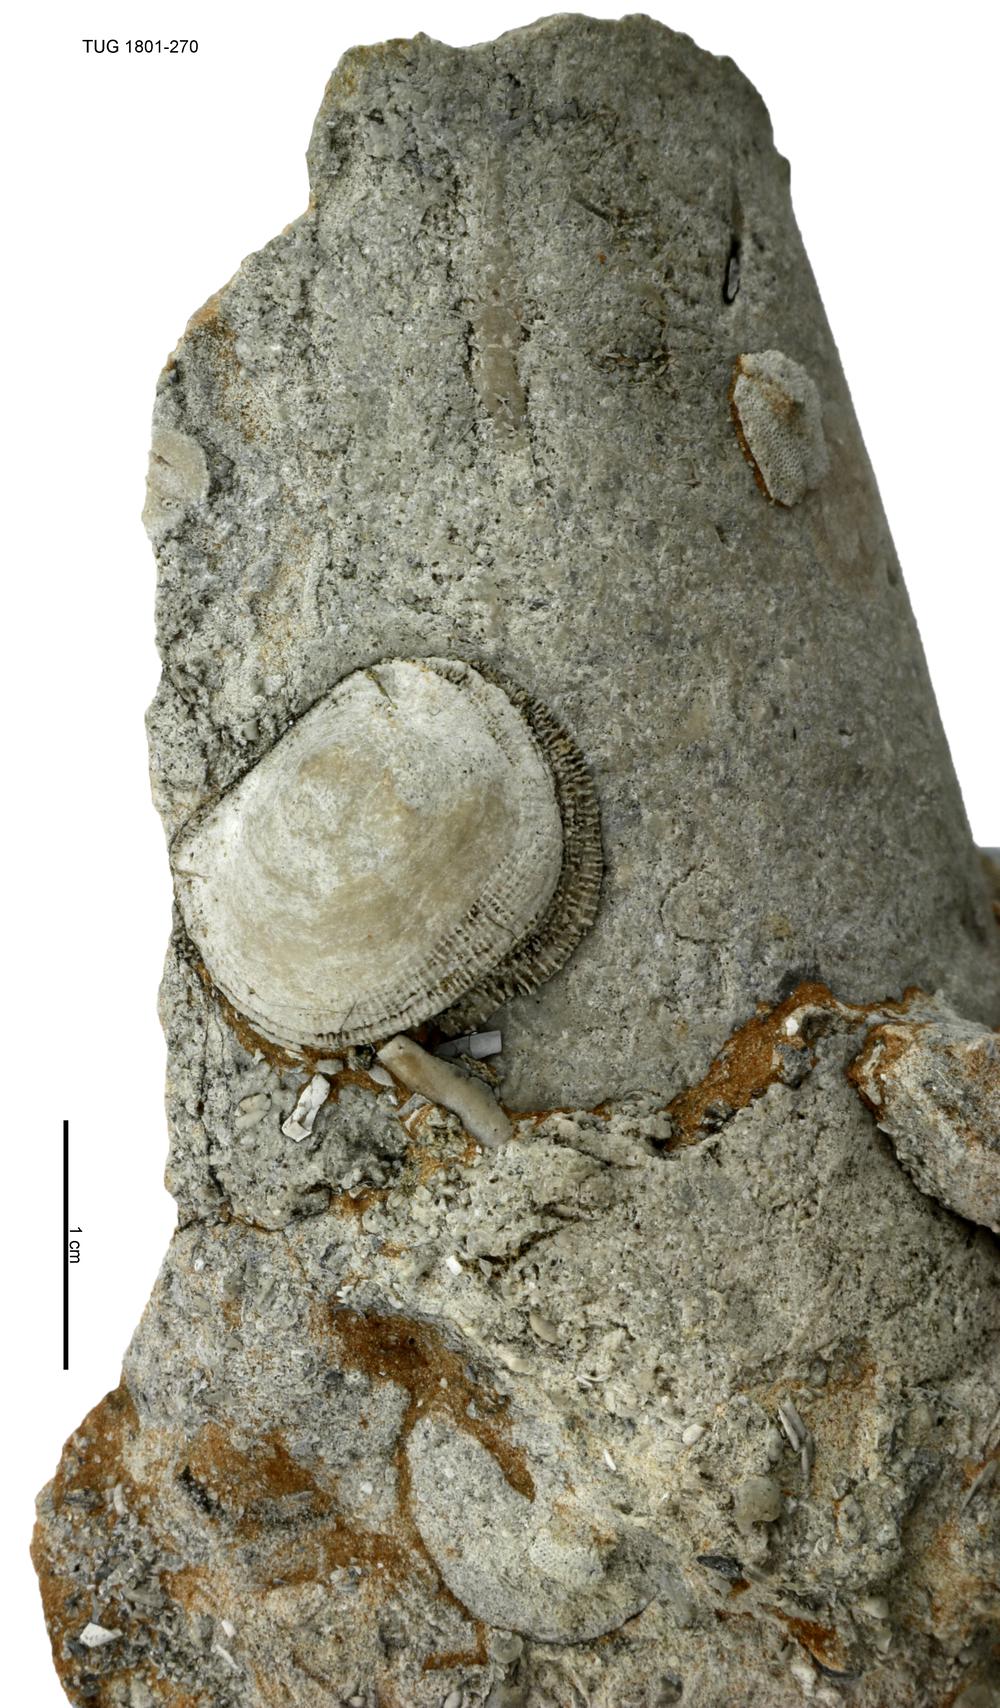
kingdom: Animalia
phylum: Brachiopoda
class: Craniata
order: Craniida
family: Craniidae
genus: Philhedra
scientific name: Philhedra
